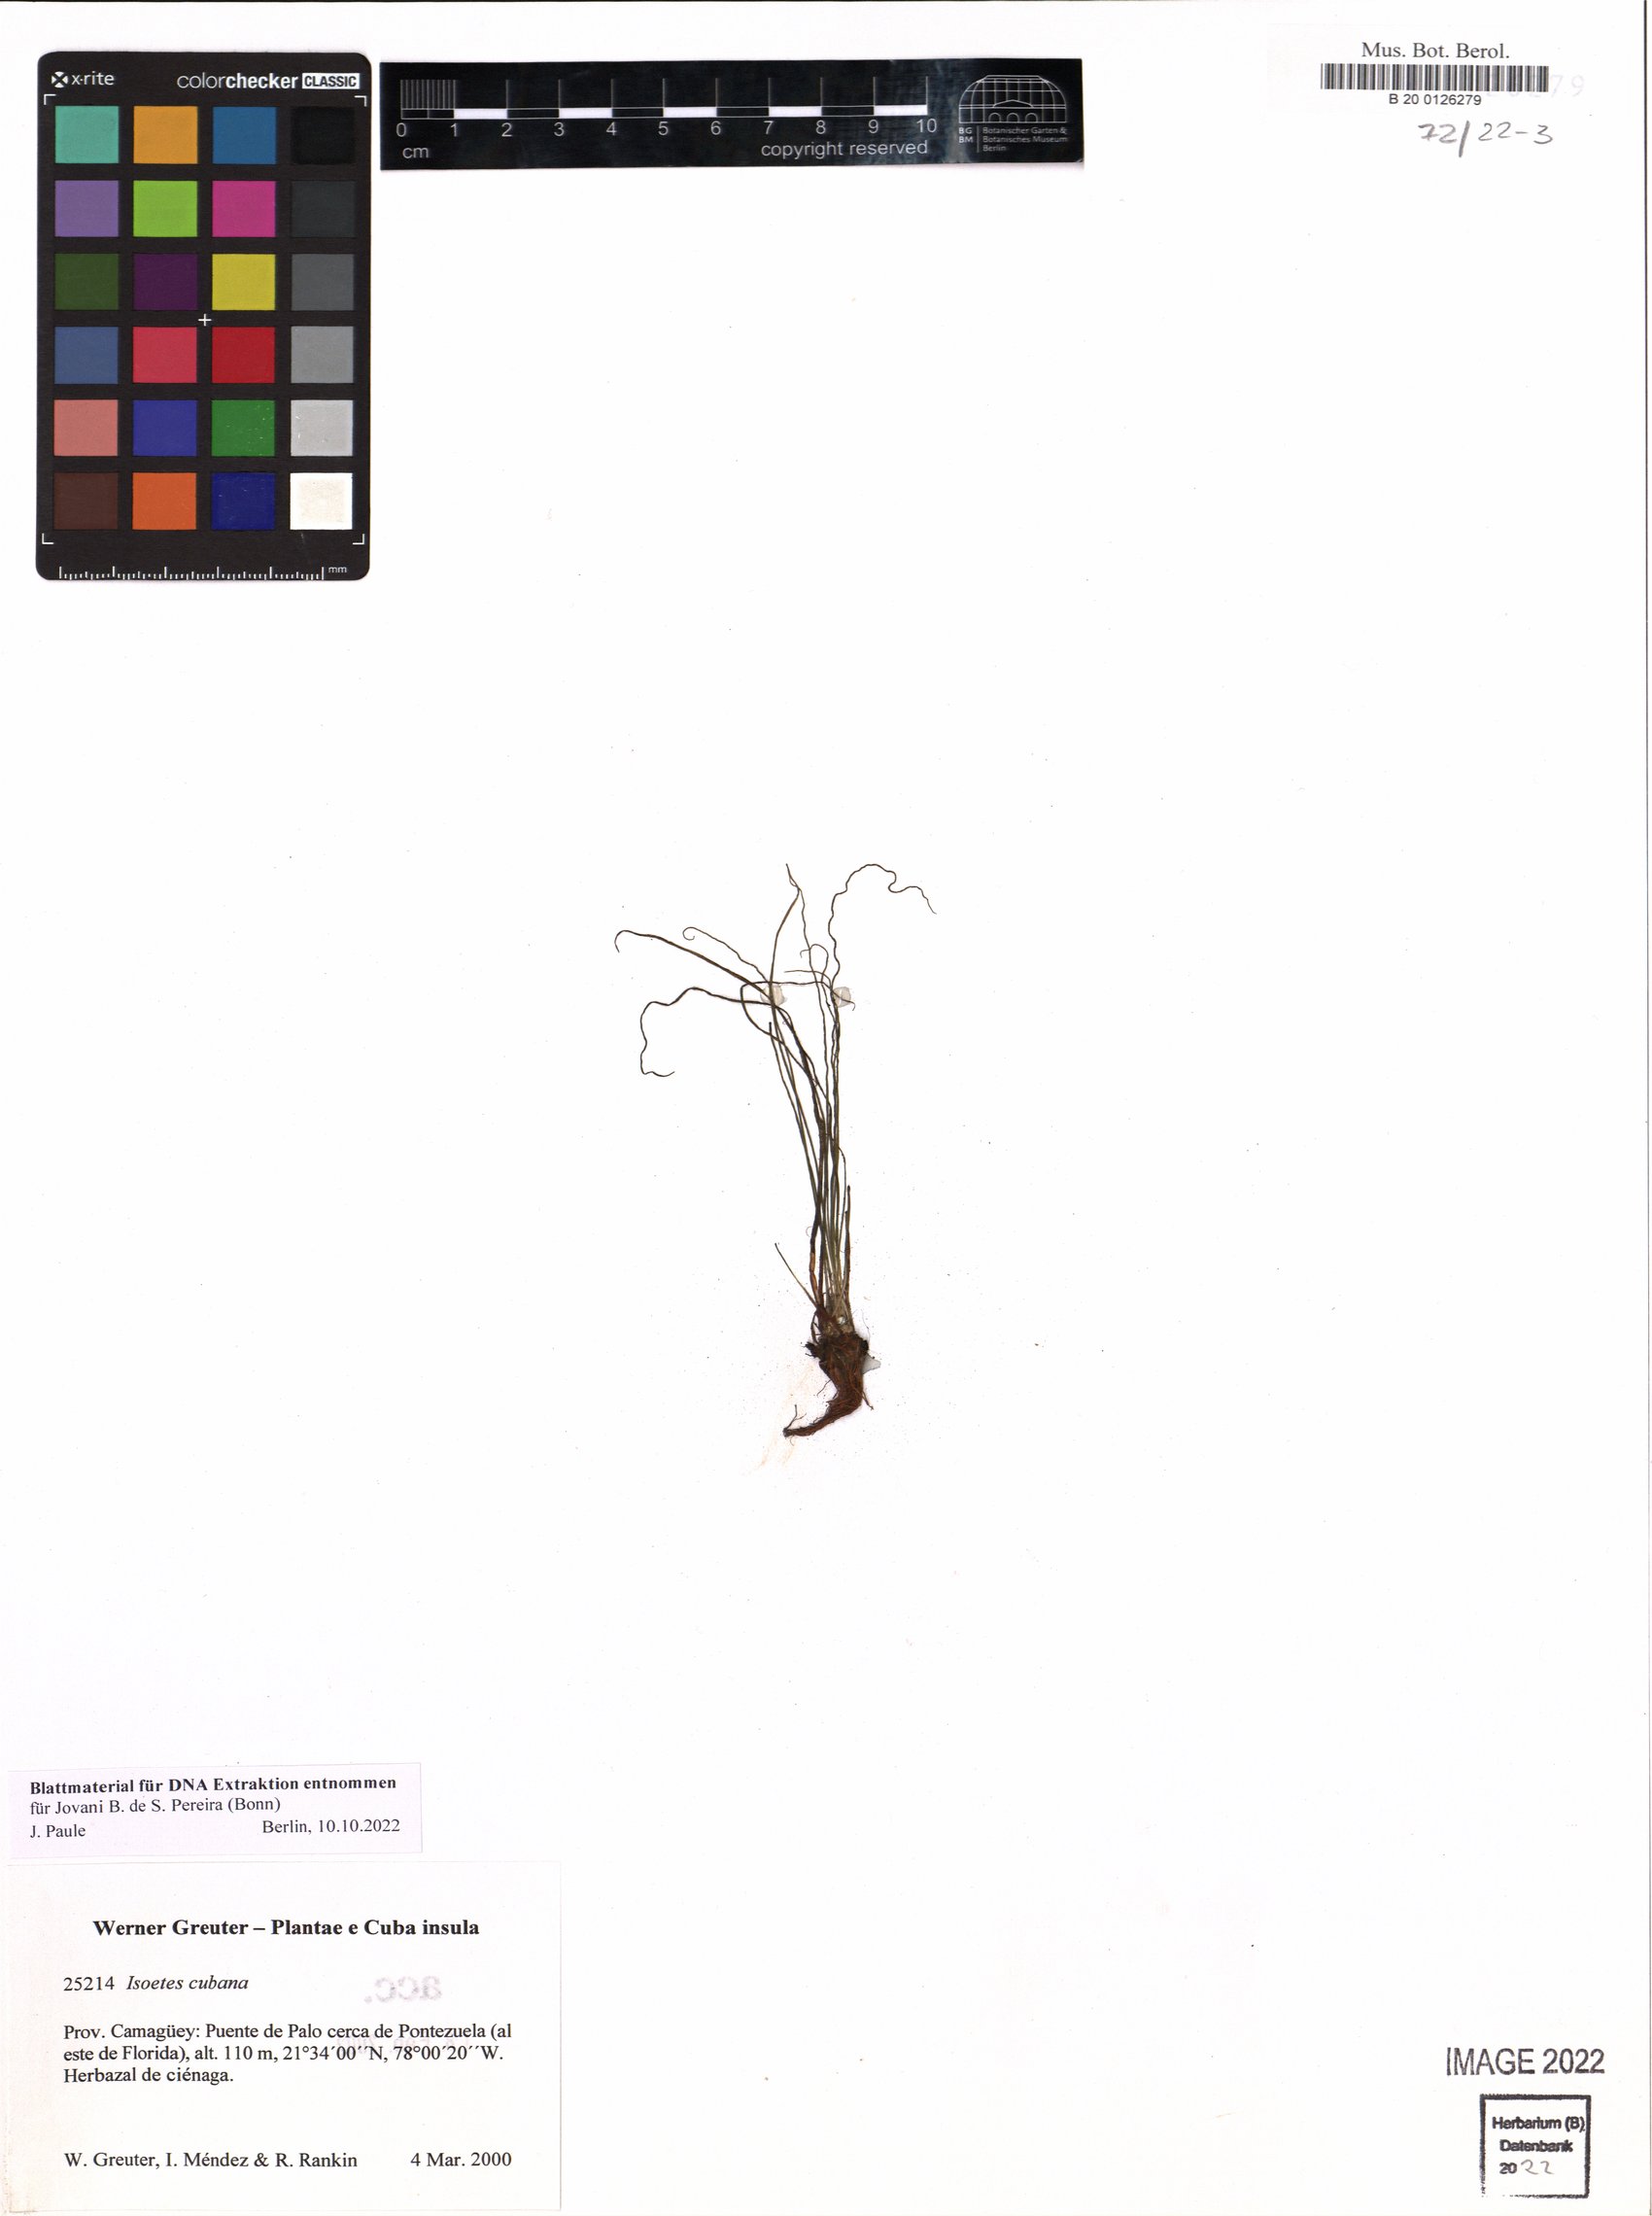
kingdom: Plantae
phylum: Tracheophyta
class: Lycopodiopsida
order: Isoetales
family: Isoetaceae
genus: Isoetes
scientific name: Isoetes cubana
